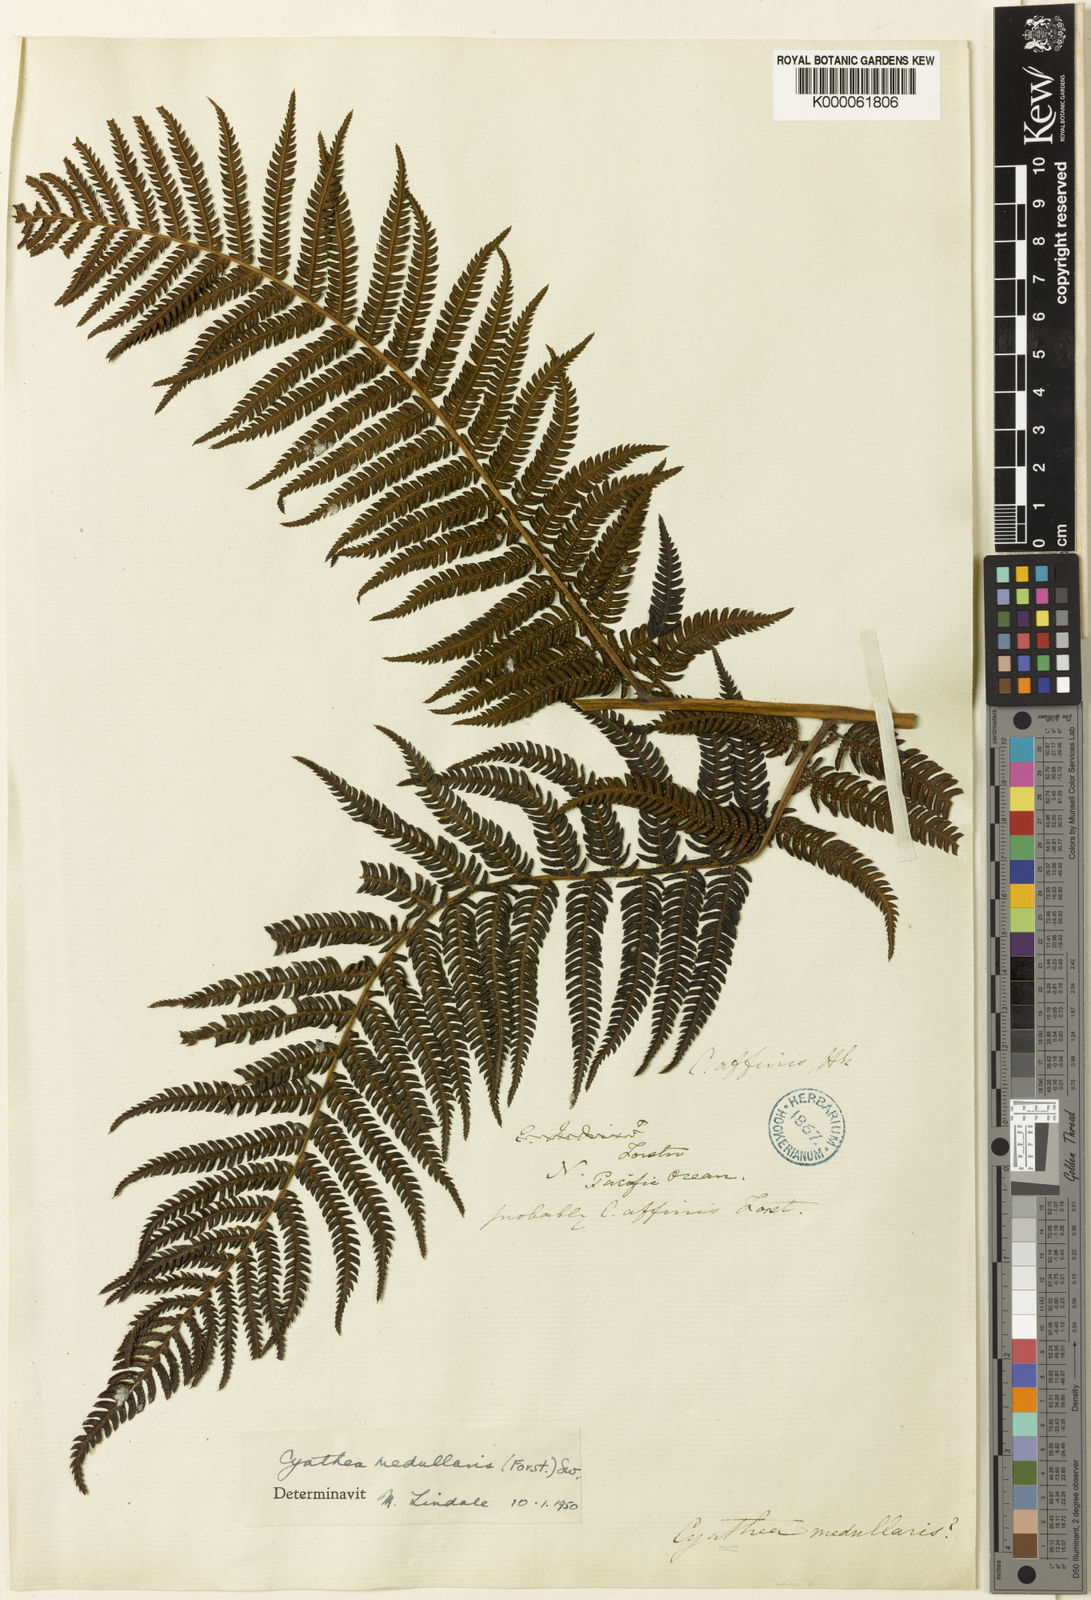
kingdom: Plantae
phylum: Tracheophyta
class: Polypodiopsida
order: Cyatheales
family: Cyatheaceae
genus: Sphaeropteris
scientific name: Sphaeropteris medullaris
